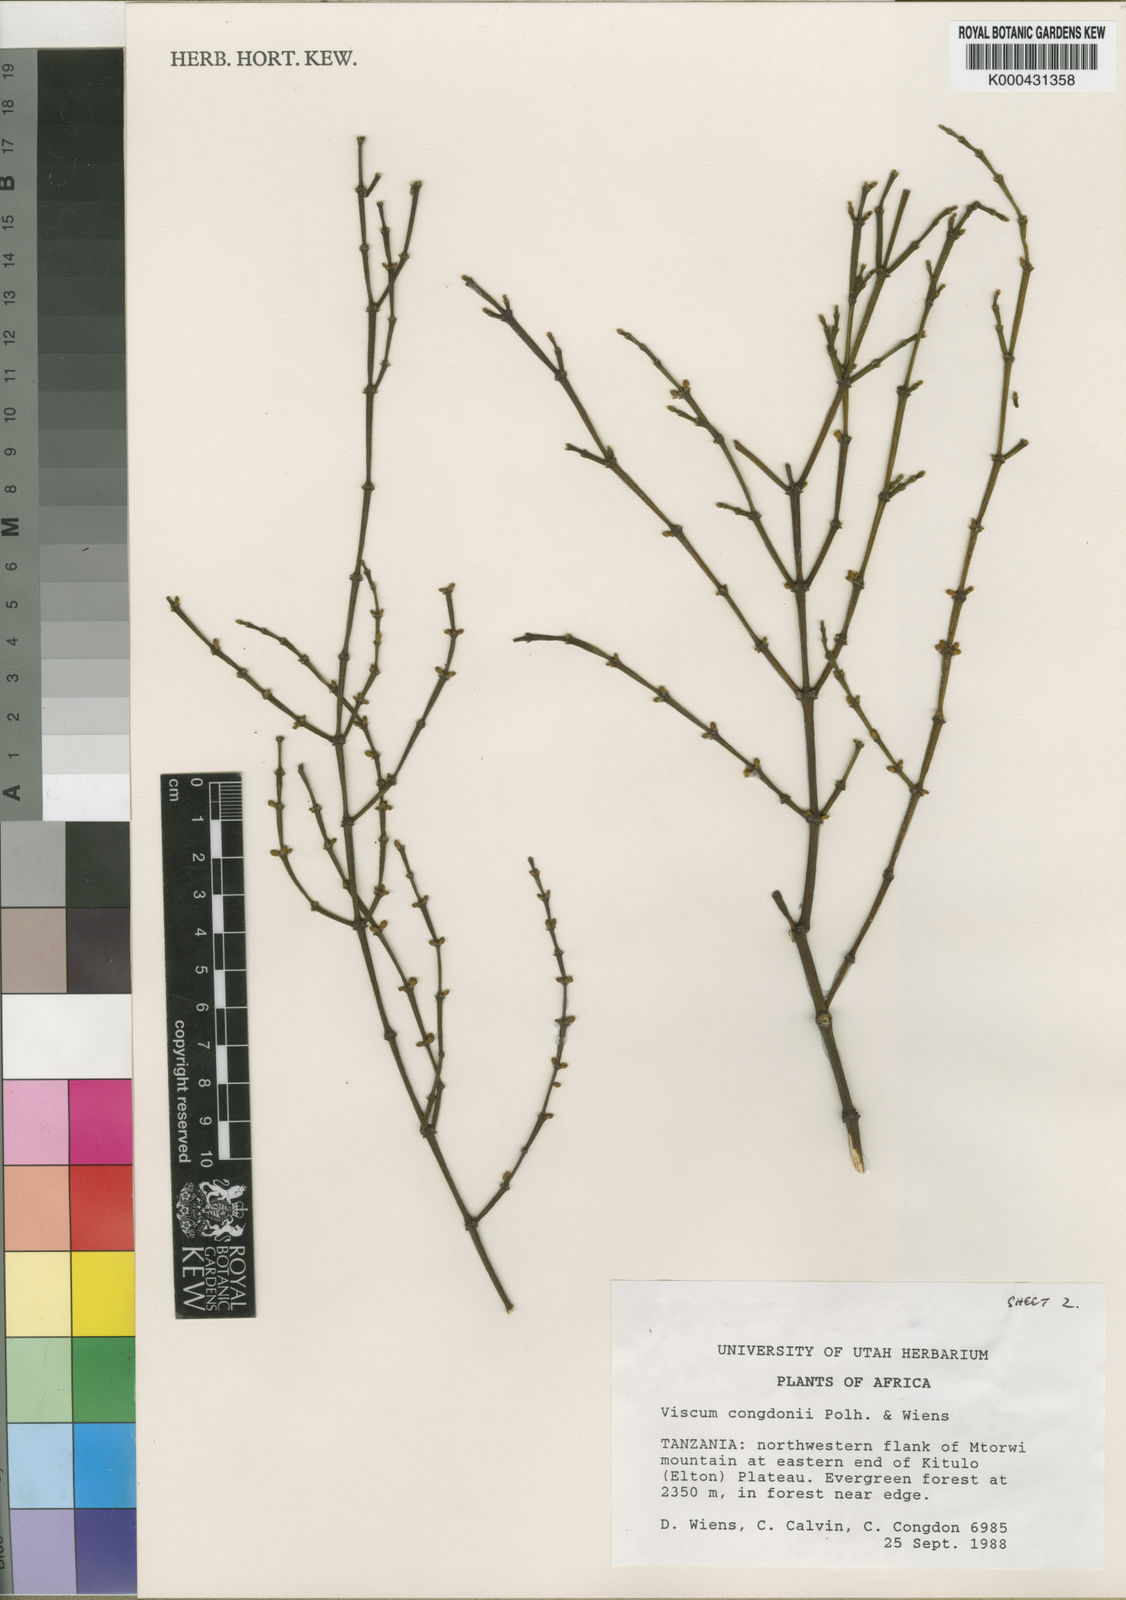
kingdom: Plantae
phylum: Tracheophyta
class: Magnoliopsida
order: Santalales
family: Viscaceae
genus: Viscum
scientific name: Viscum congdonii
